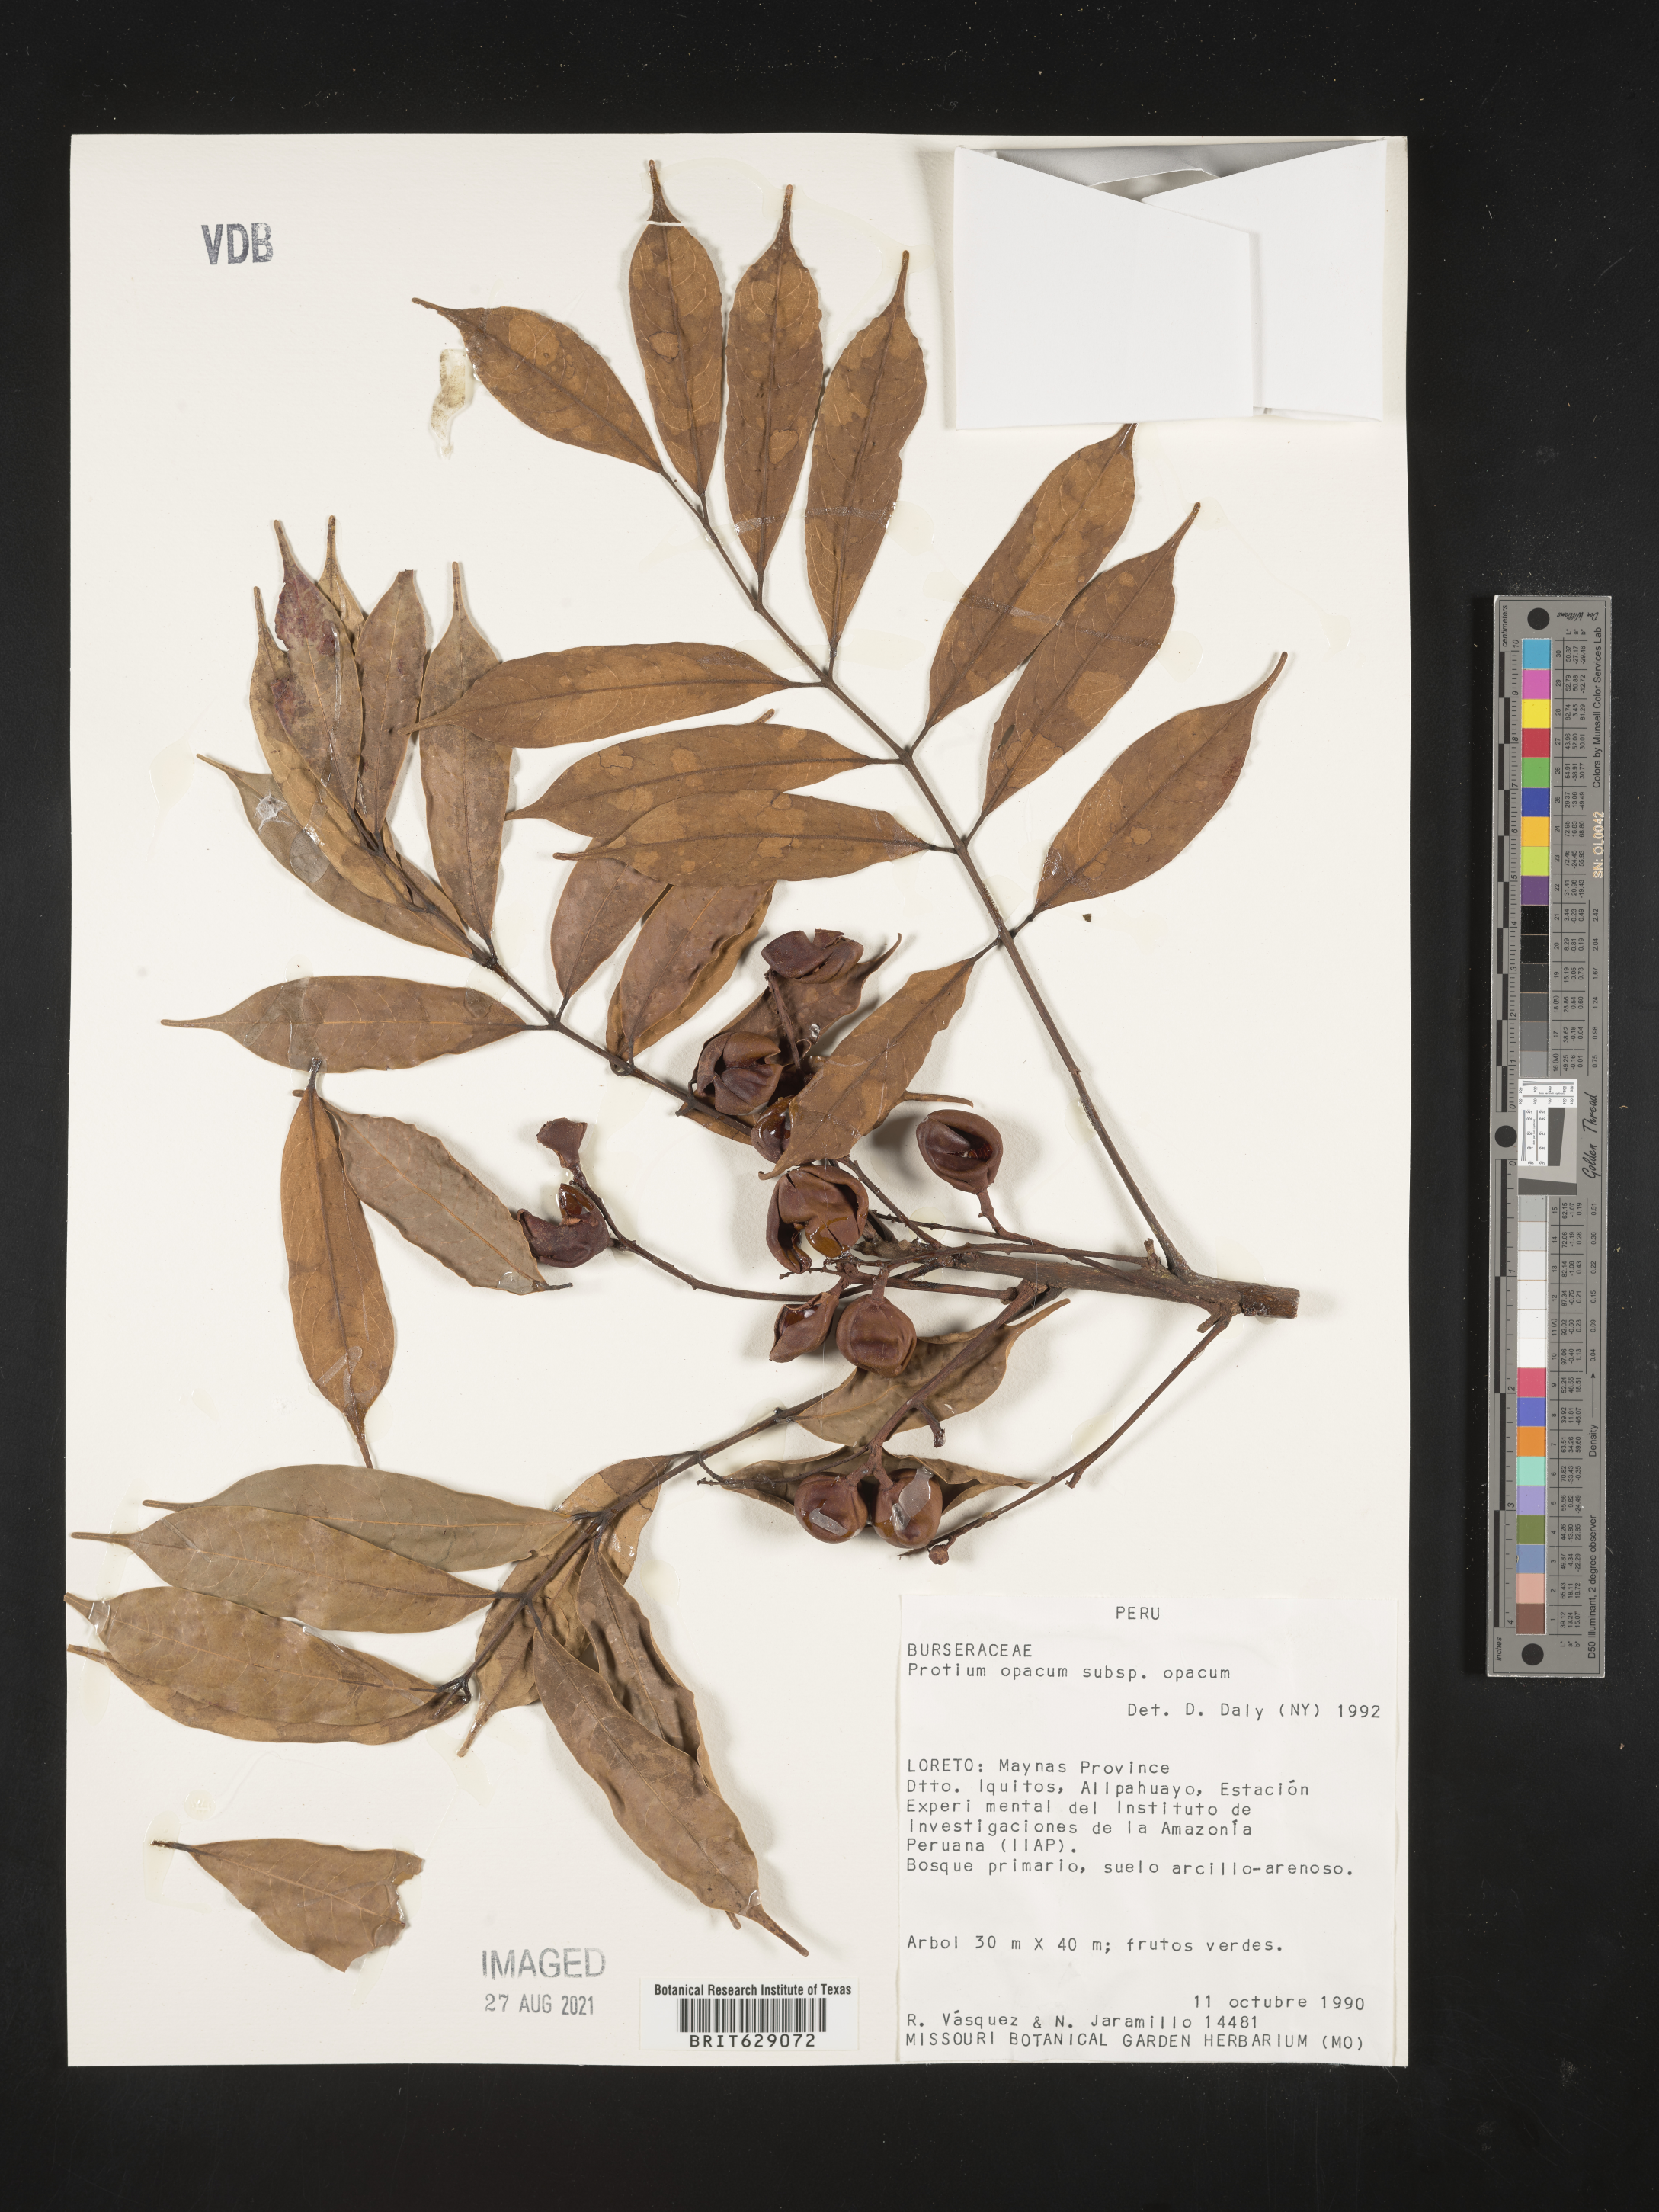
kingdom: Plantae
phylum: Tracheophyta
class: Magnoliopsida
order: Sapindales
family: Burseraceae
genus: Protium
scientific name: Protium opacum
